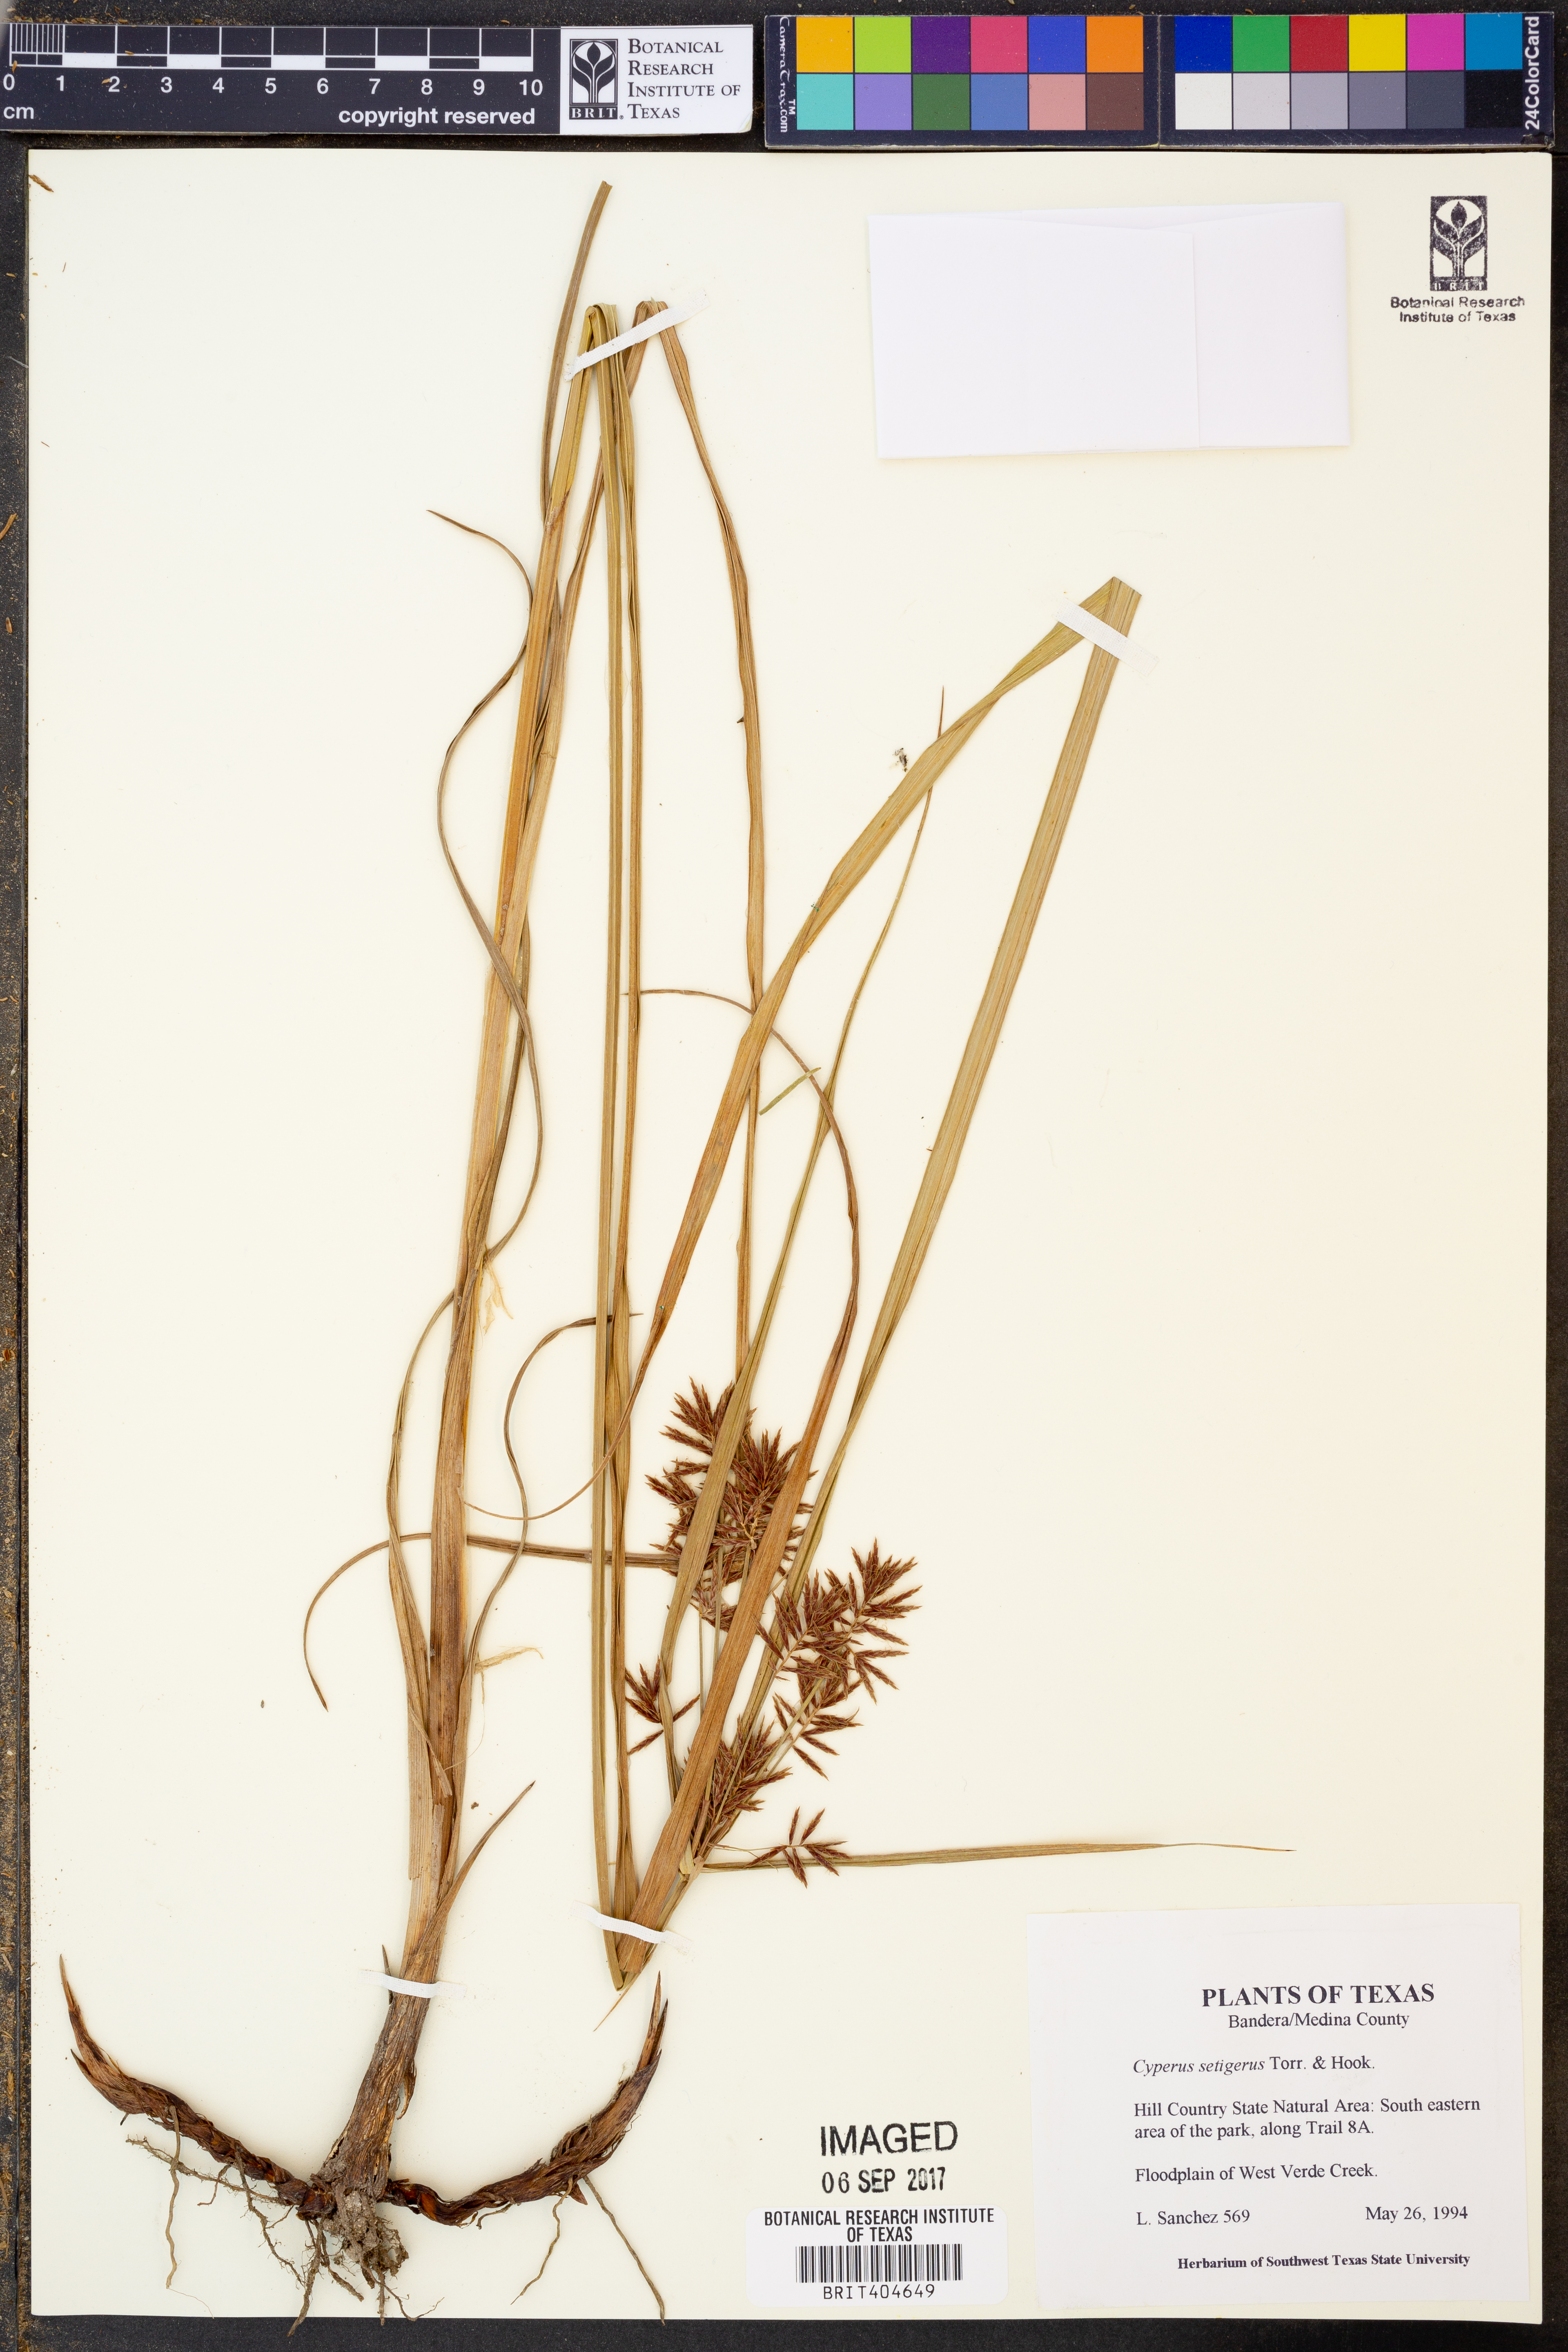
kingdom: Plantae
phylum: Tracheophyta
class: Liliopsida
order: Poales
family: Cyperaceae
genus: Cyperus
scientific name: Cyperus setigerus
